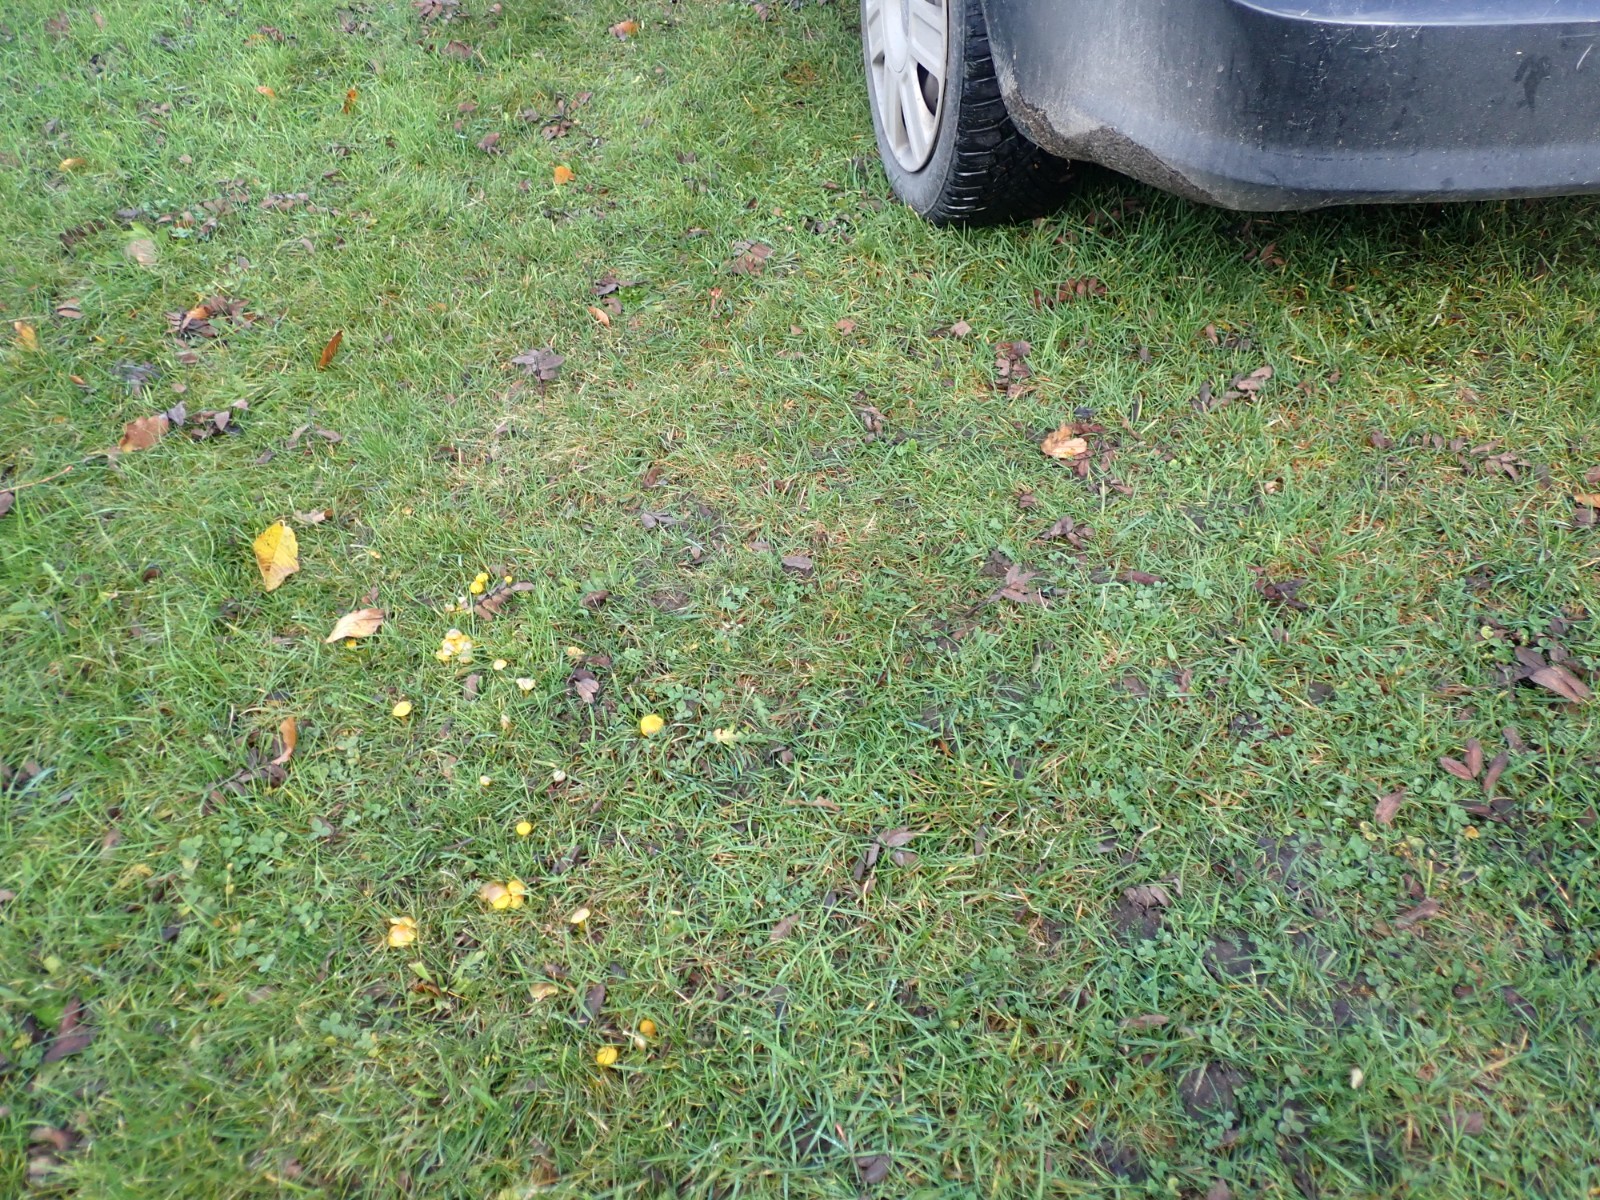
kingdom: Fungi
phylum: Basidiomycota
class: Agaricomycetes
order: Agaricales
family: Hygrophoraceae
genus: Hygrocybe
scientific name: Hygrocybe ceracea
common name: voksgul vokshat
